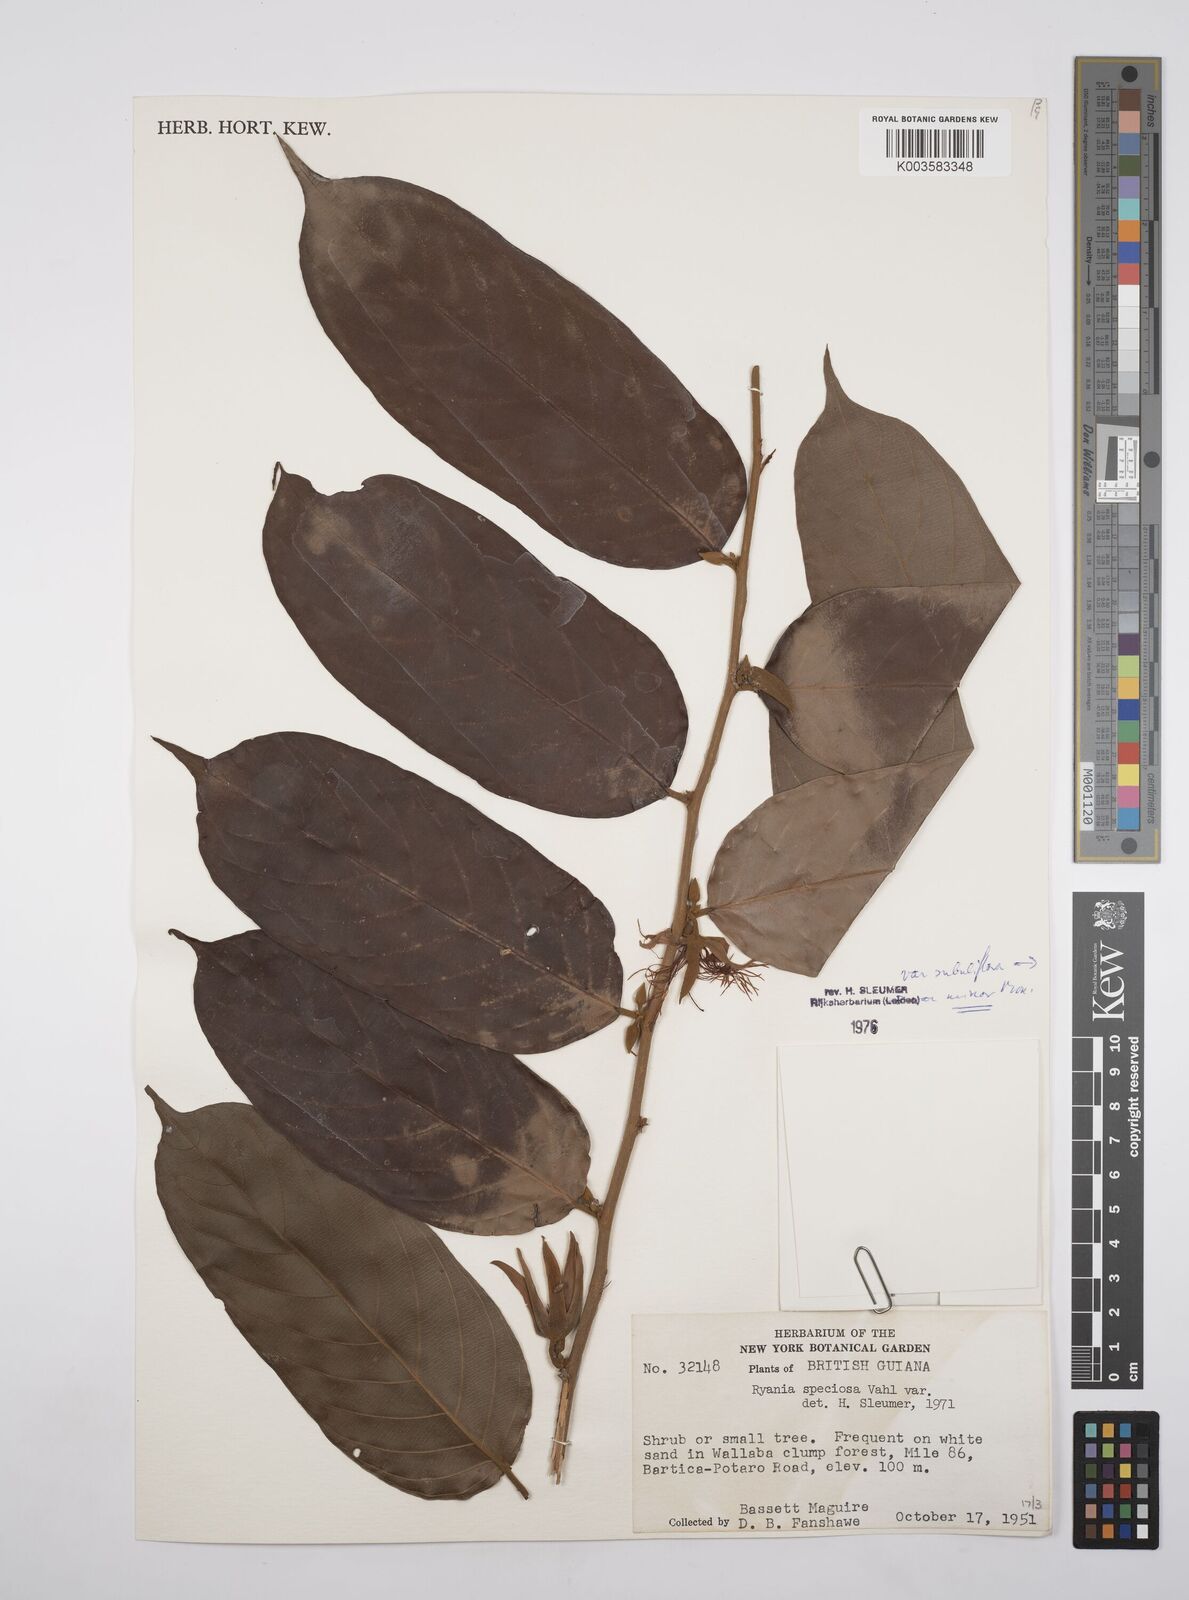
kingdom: Plantae
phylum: Tracheophyta
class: Magnoliopsida
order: Malpighiales
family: Salicaceae
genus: Ryania
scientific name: Ryania speciosa
